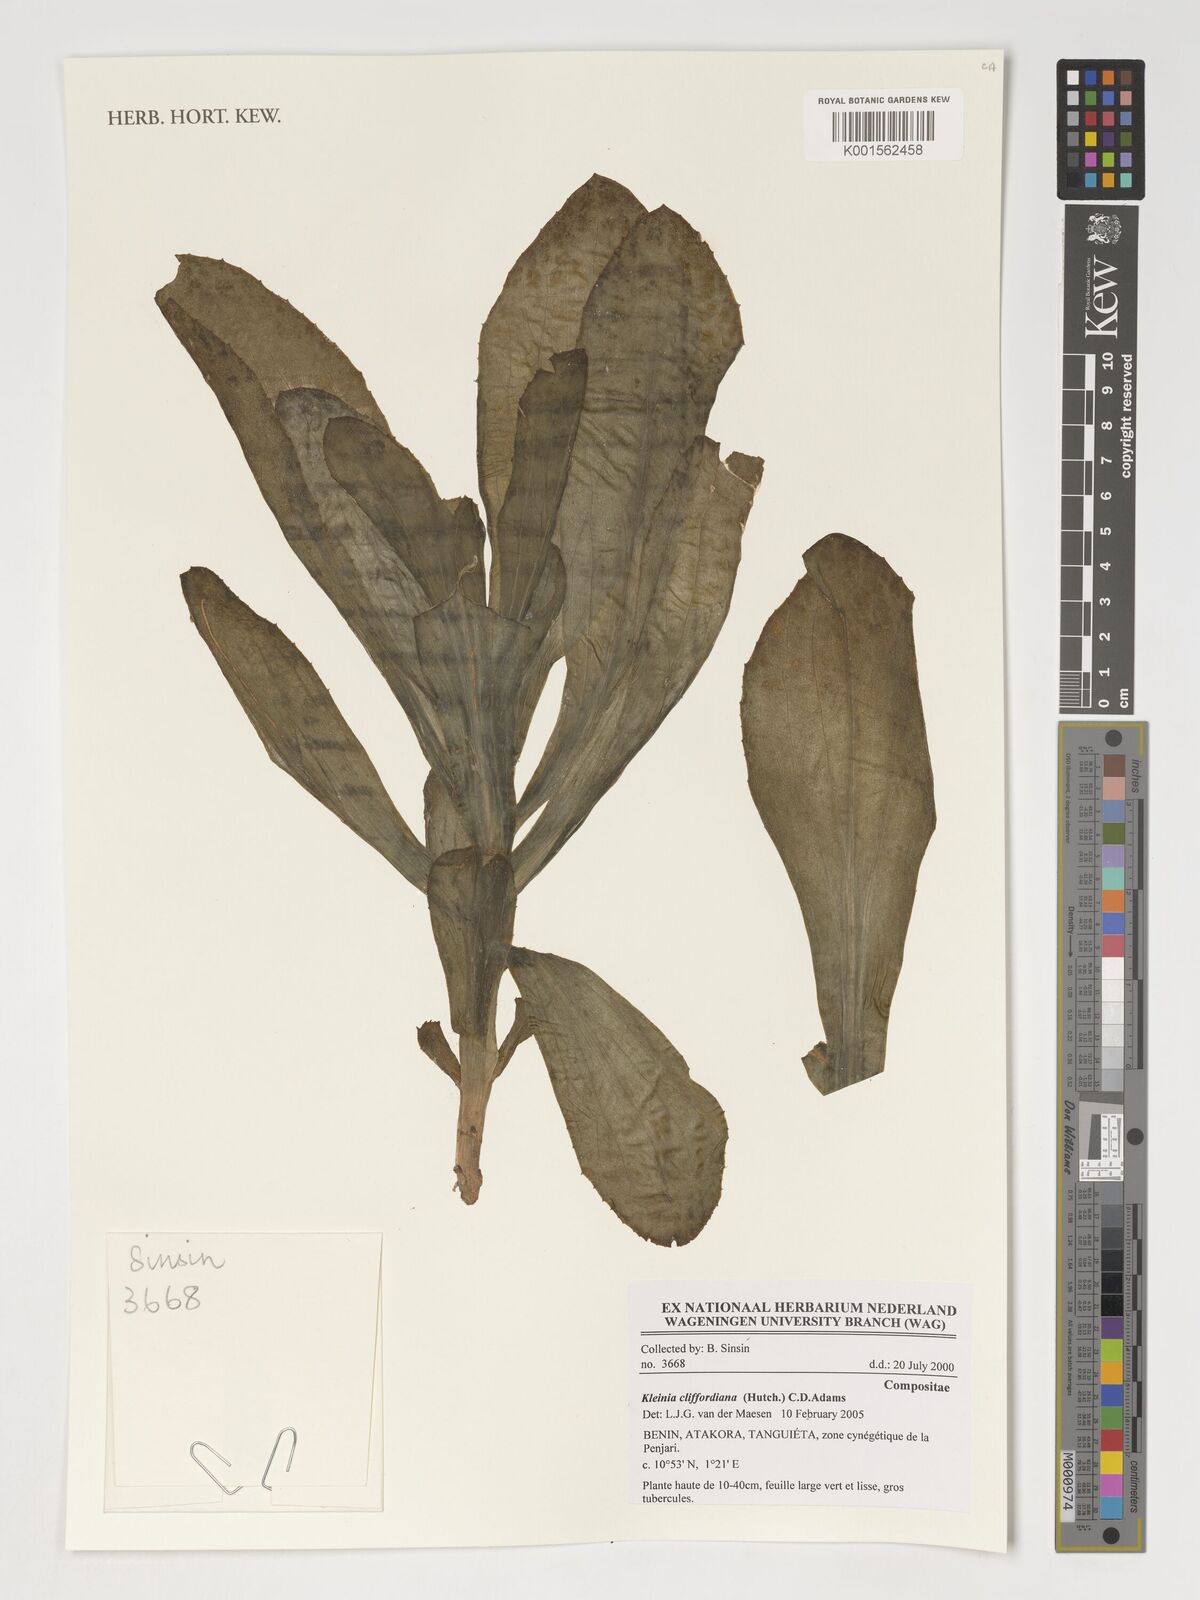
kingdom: Plantae
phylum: Tracheophyta
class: Magnoliopsida
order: Asterales
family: Asteraceae
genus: Kleinia
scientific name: Kleinia cliffordiana
